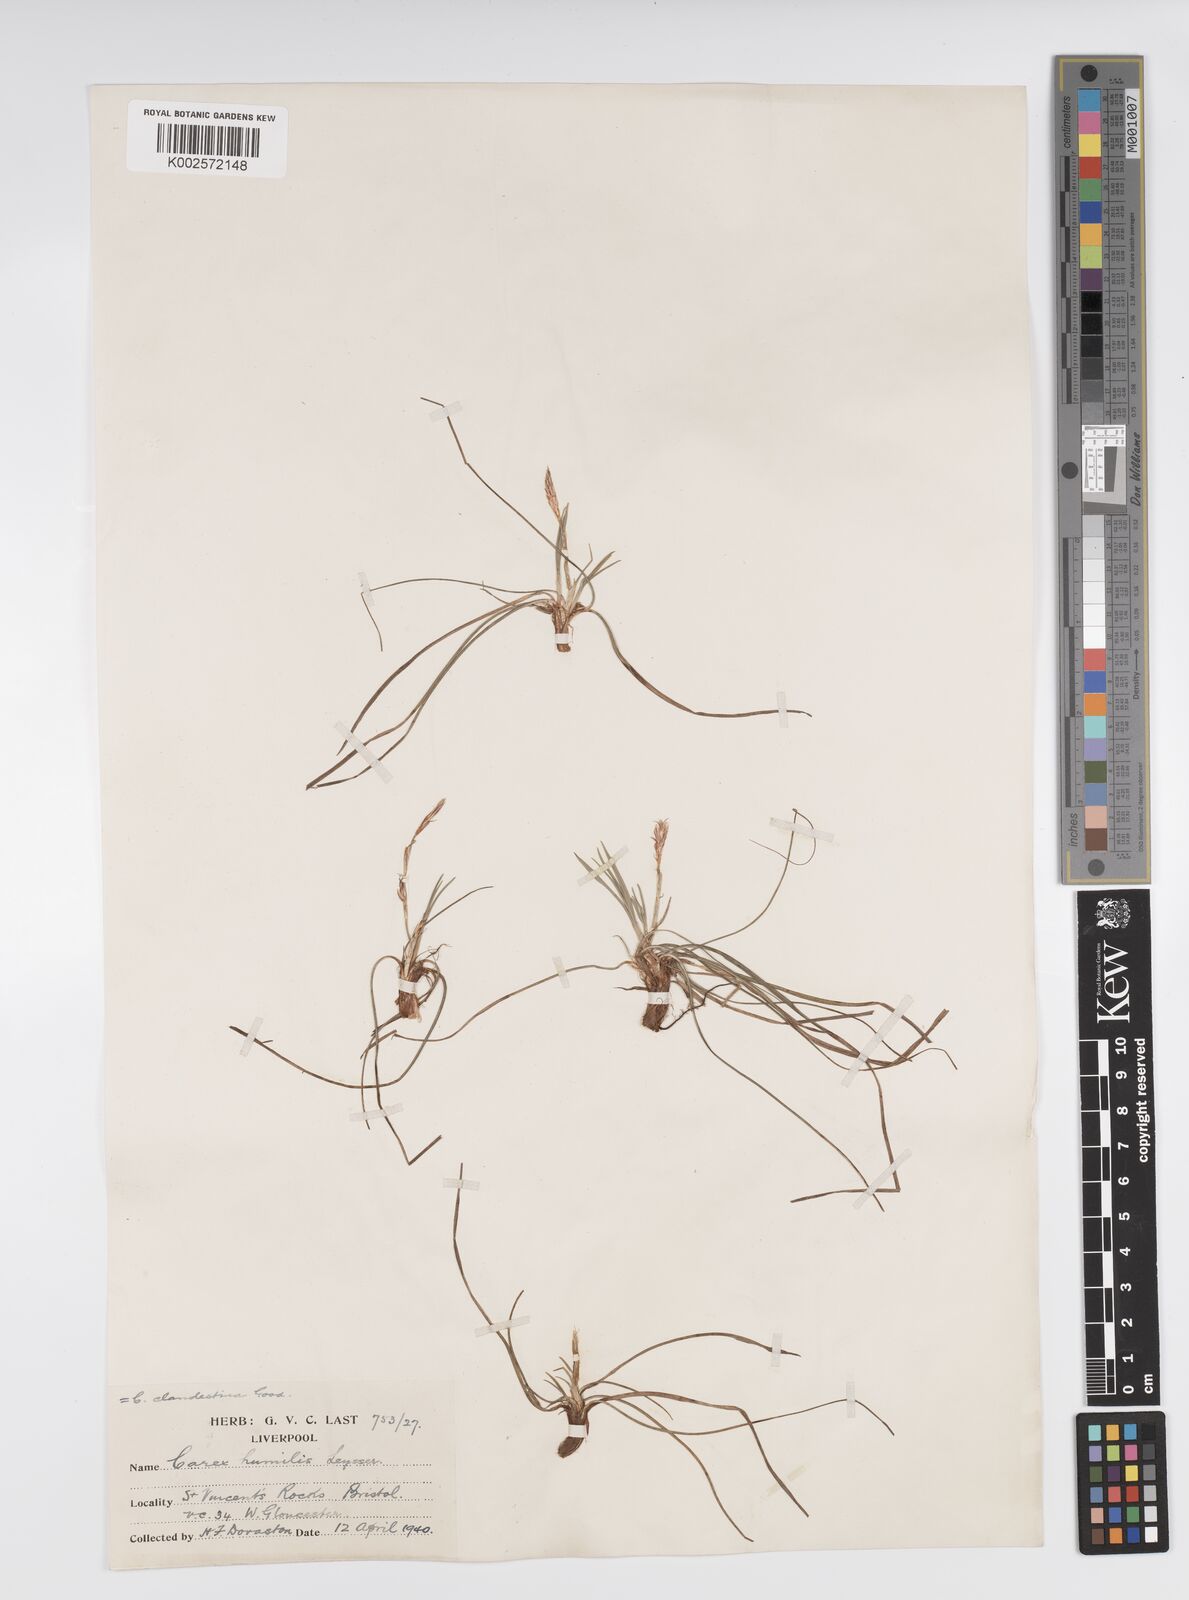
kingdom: Plantae
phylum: Tracheophyta
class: Liliopsida
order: Poales
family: Cyperaceae
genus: Carex
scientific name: Carex humilis
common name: Dwarf sedge
